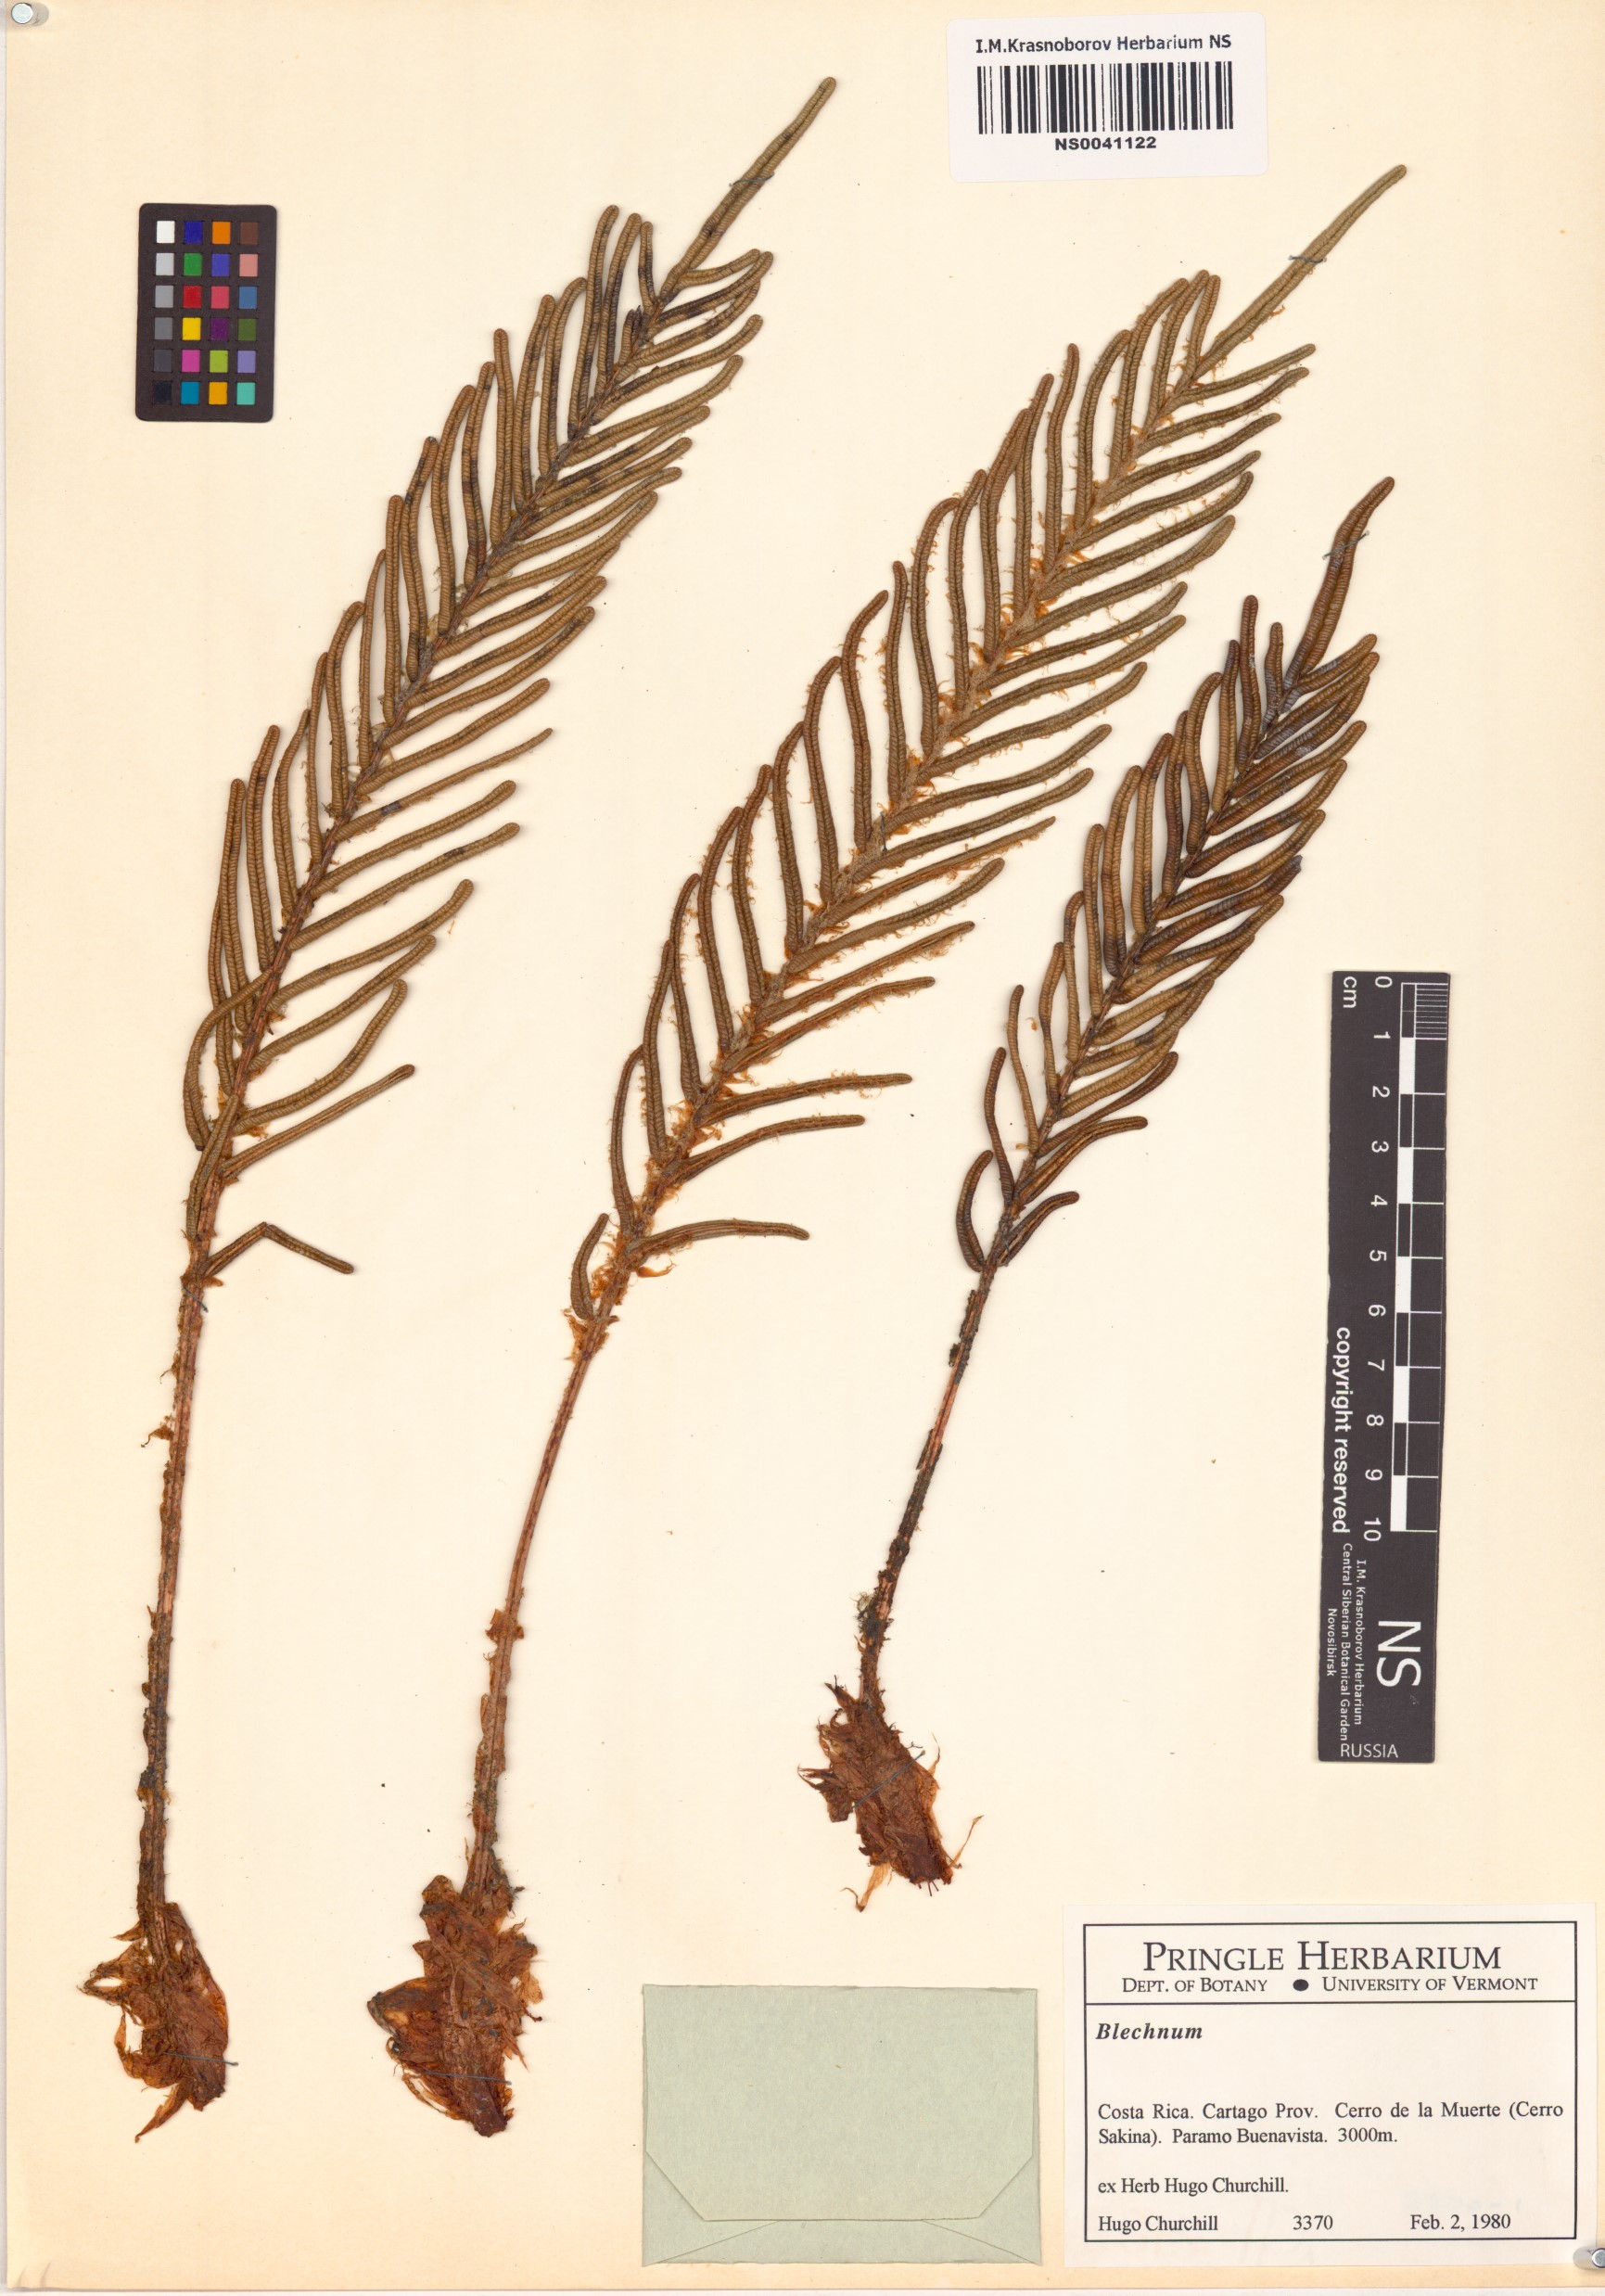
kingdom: Plantae
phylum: Tracheophyta
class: Polypodiopsida
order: Polypodiales
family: Blechnaceae
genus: Parablechnum
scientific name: Parablechnum loxense
